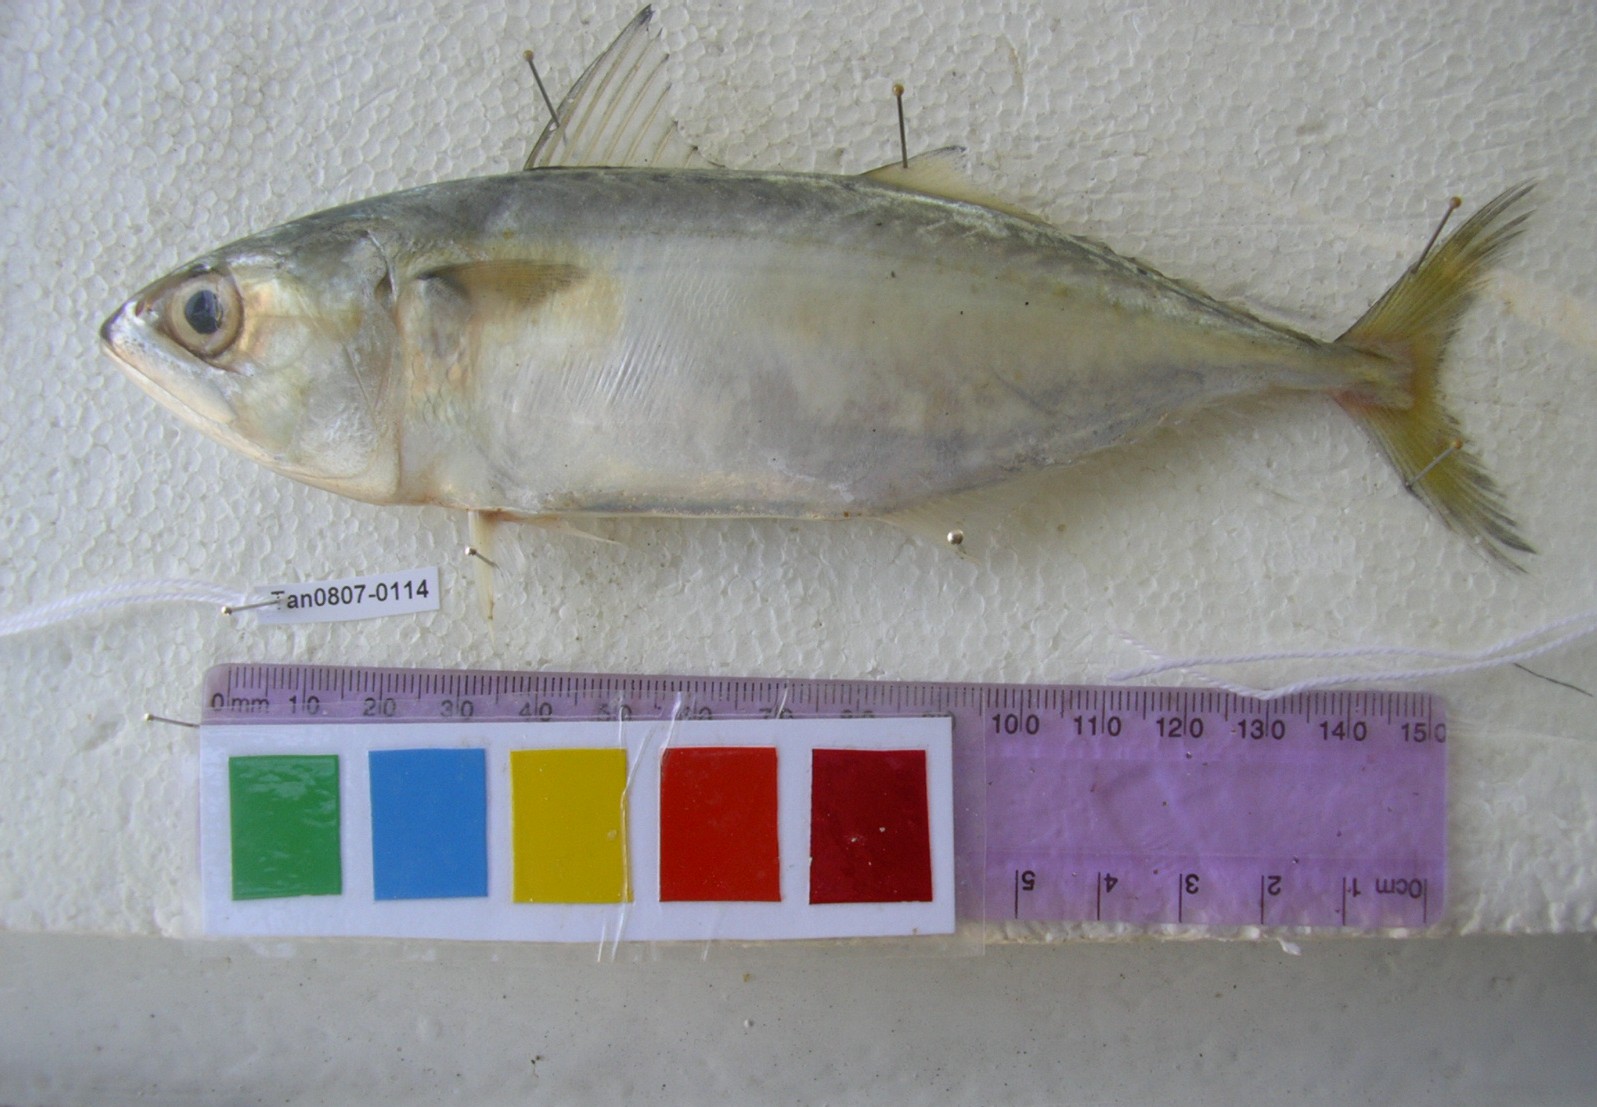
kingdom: Animalia
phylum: Chordata
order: Perciformes
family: Scombridae
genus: Rastrelliger
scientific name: Rastrelliger kanagurta
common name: Indian mackerel
